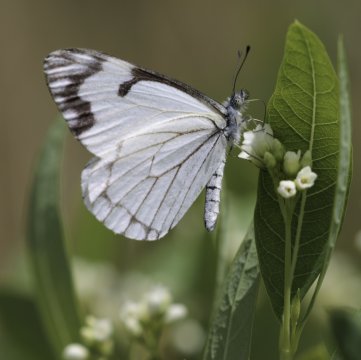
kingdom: Animalia
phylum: Arthropoda
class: Insecta
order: Lepidoptera
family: Pieridae
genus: Neophasia
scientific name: Neophasia menapia
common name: Pine White
